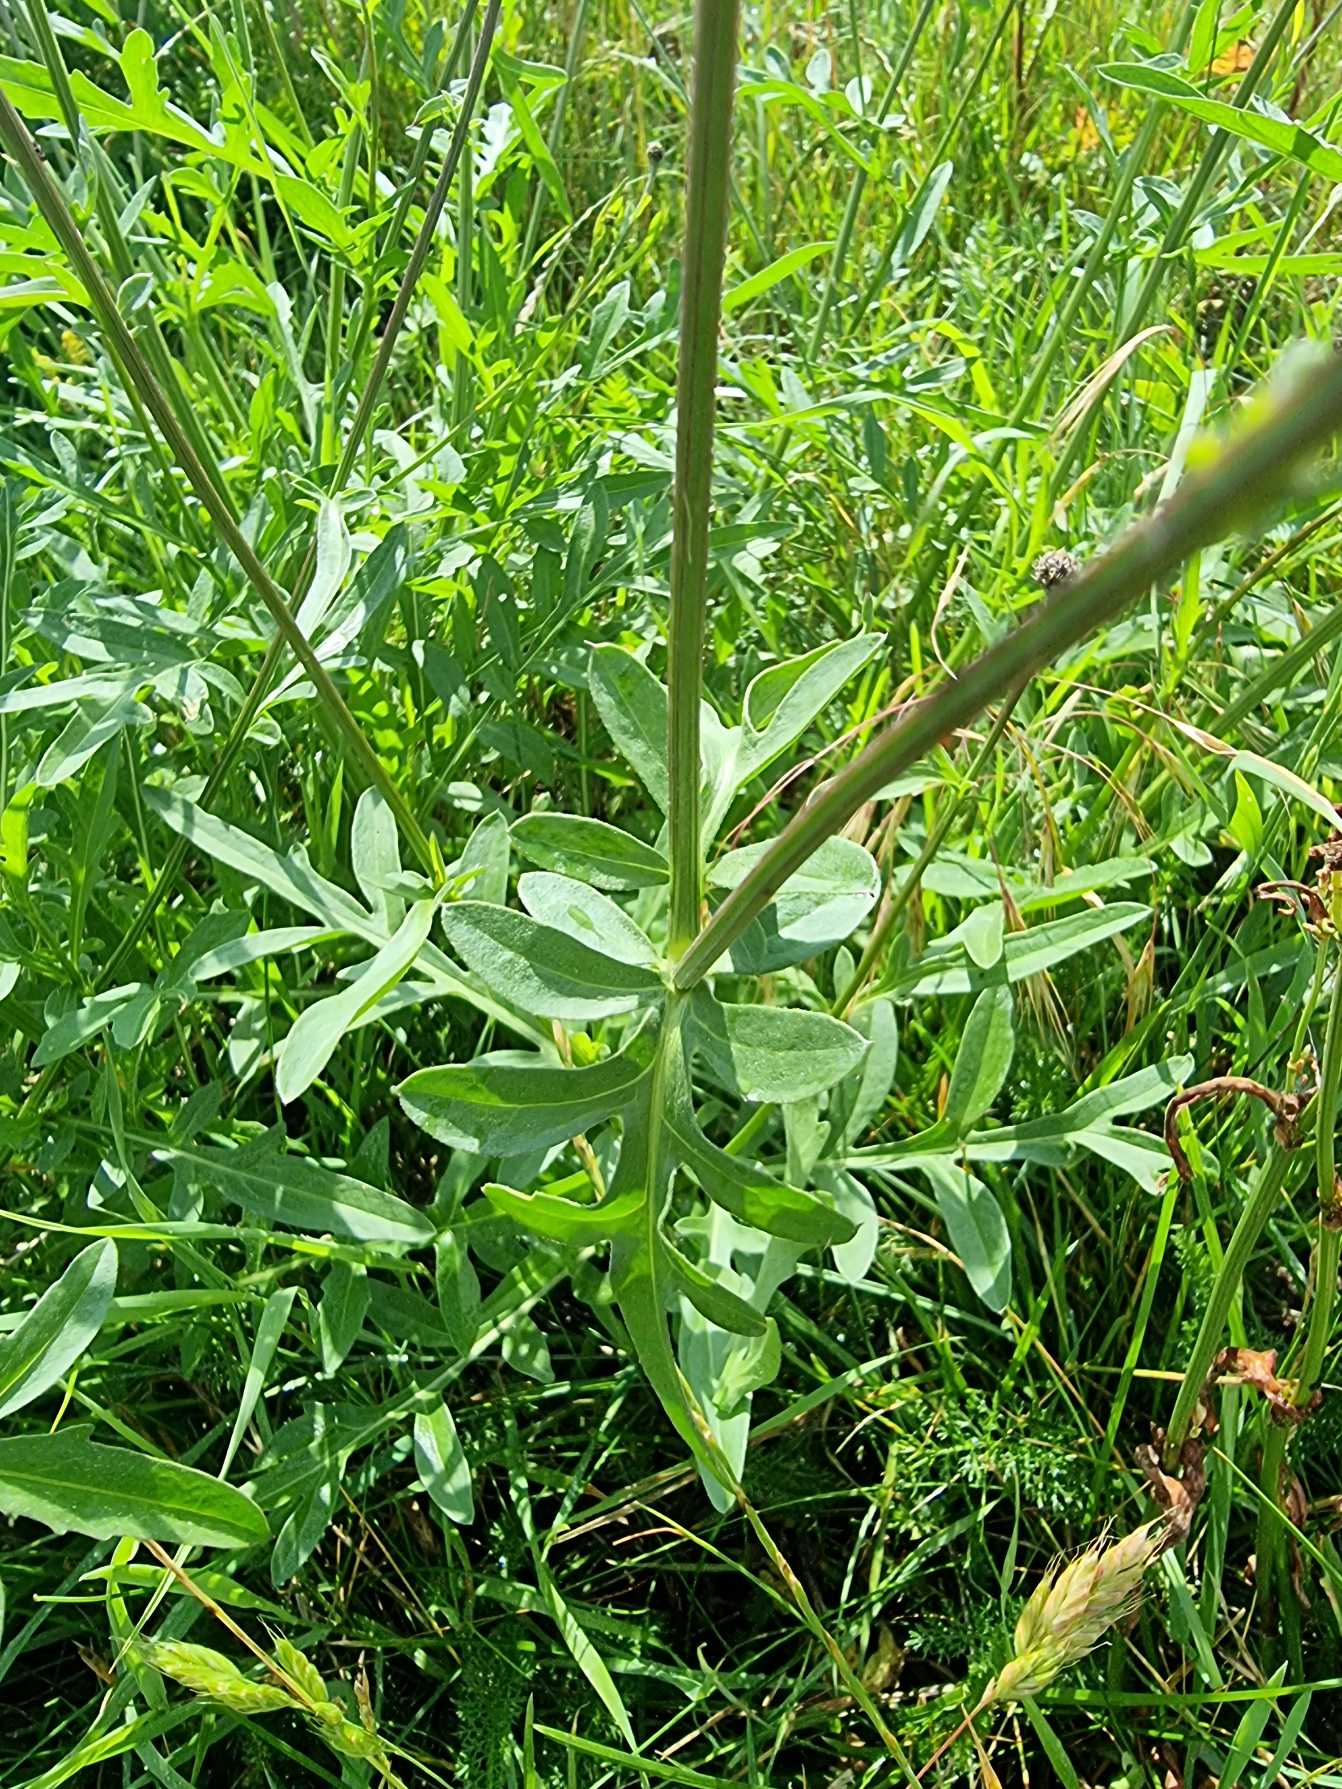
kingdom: Plantae
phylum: Tracheophyta
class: Magnoliopsida
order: Asterales
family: Asteraceae
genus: Centaurea
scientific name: Centaurea scabiosa
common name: Stor knopurt
